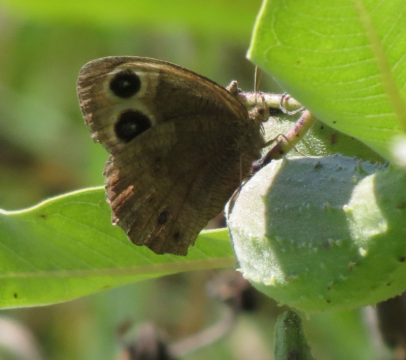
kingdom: Animalia
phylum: Arthropoda
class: Insecta
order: Lepidoptera
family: Nymphalidae
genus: Cercyonis
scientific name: Cercyonis pegala
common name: Common Wood-Nymph
